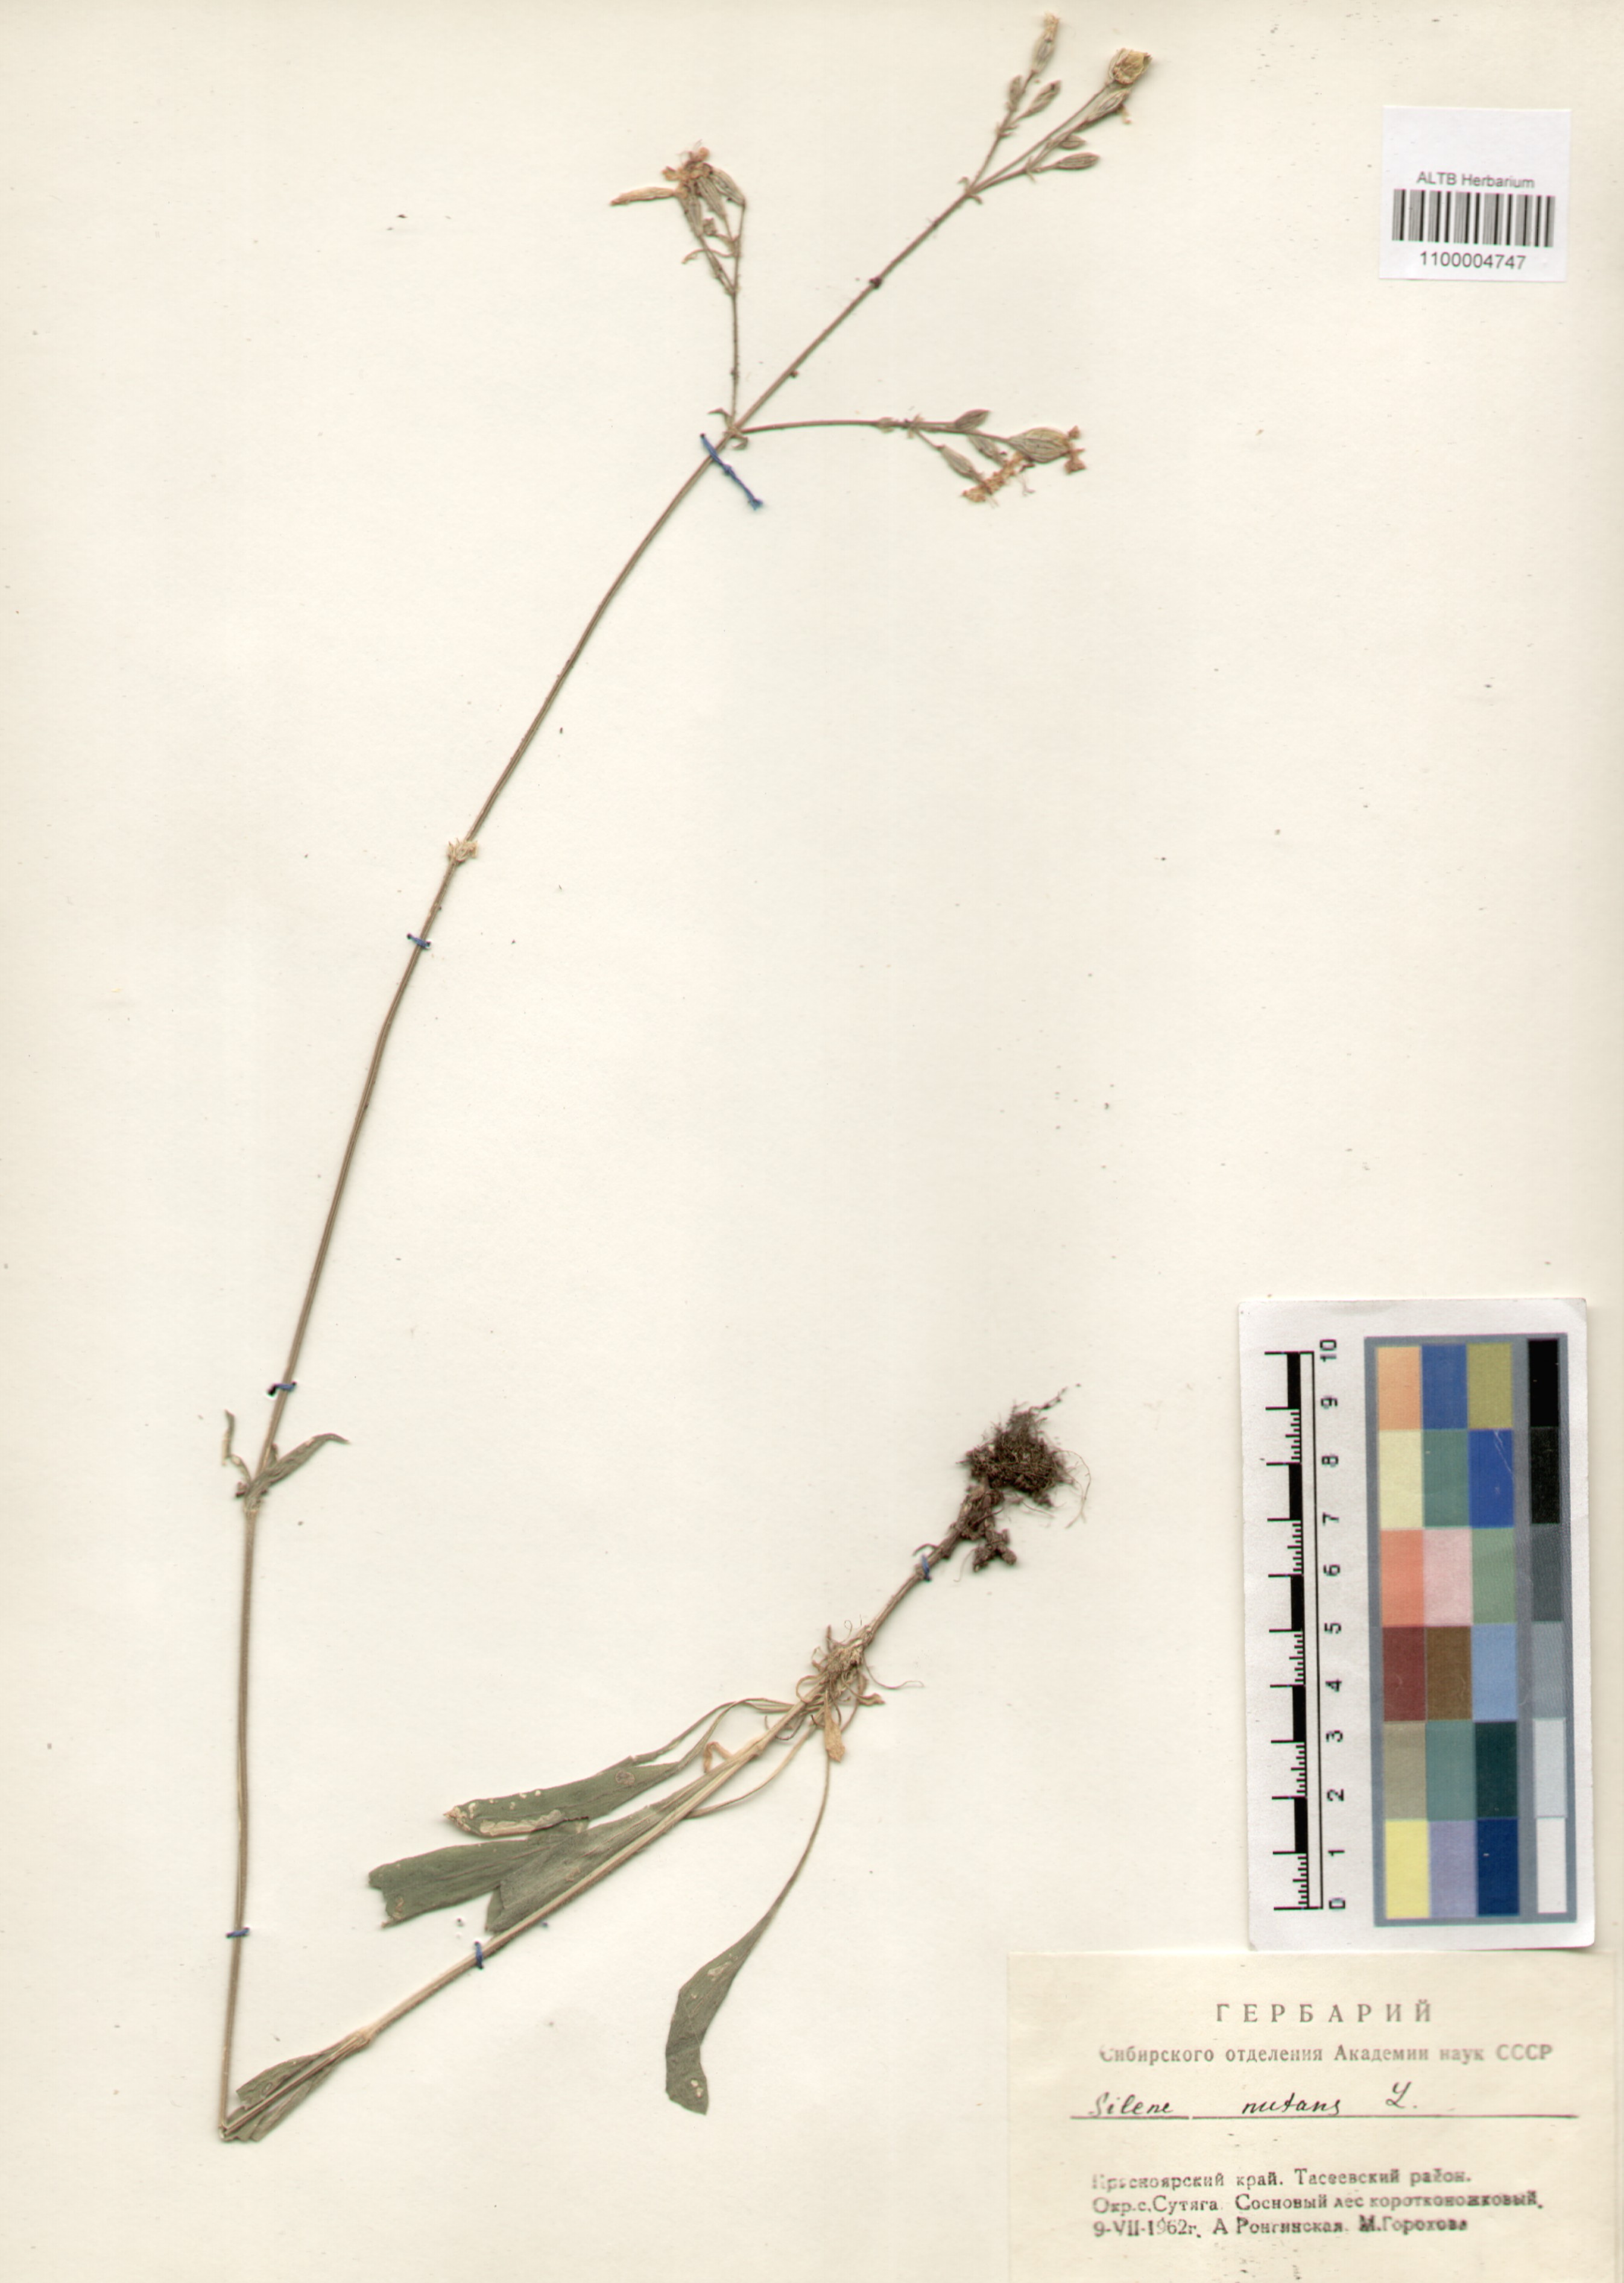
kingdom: Plantae
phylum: Tracheophyta
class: Magnoliopsida
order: Caryophyllales
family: Caryophyllaceae
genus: Silene
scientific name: Silene nutans
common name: Nottingham catchfly
